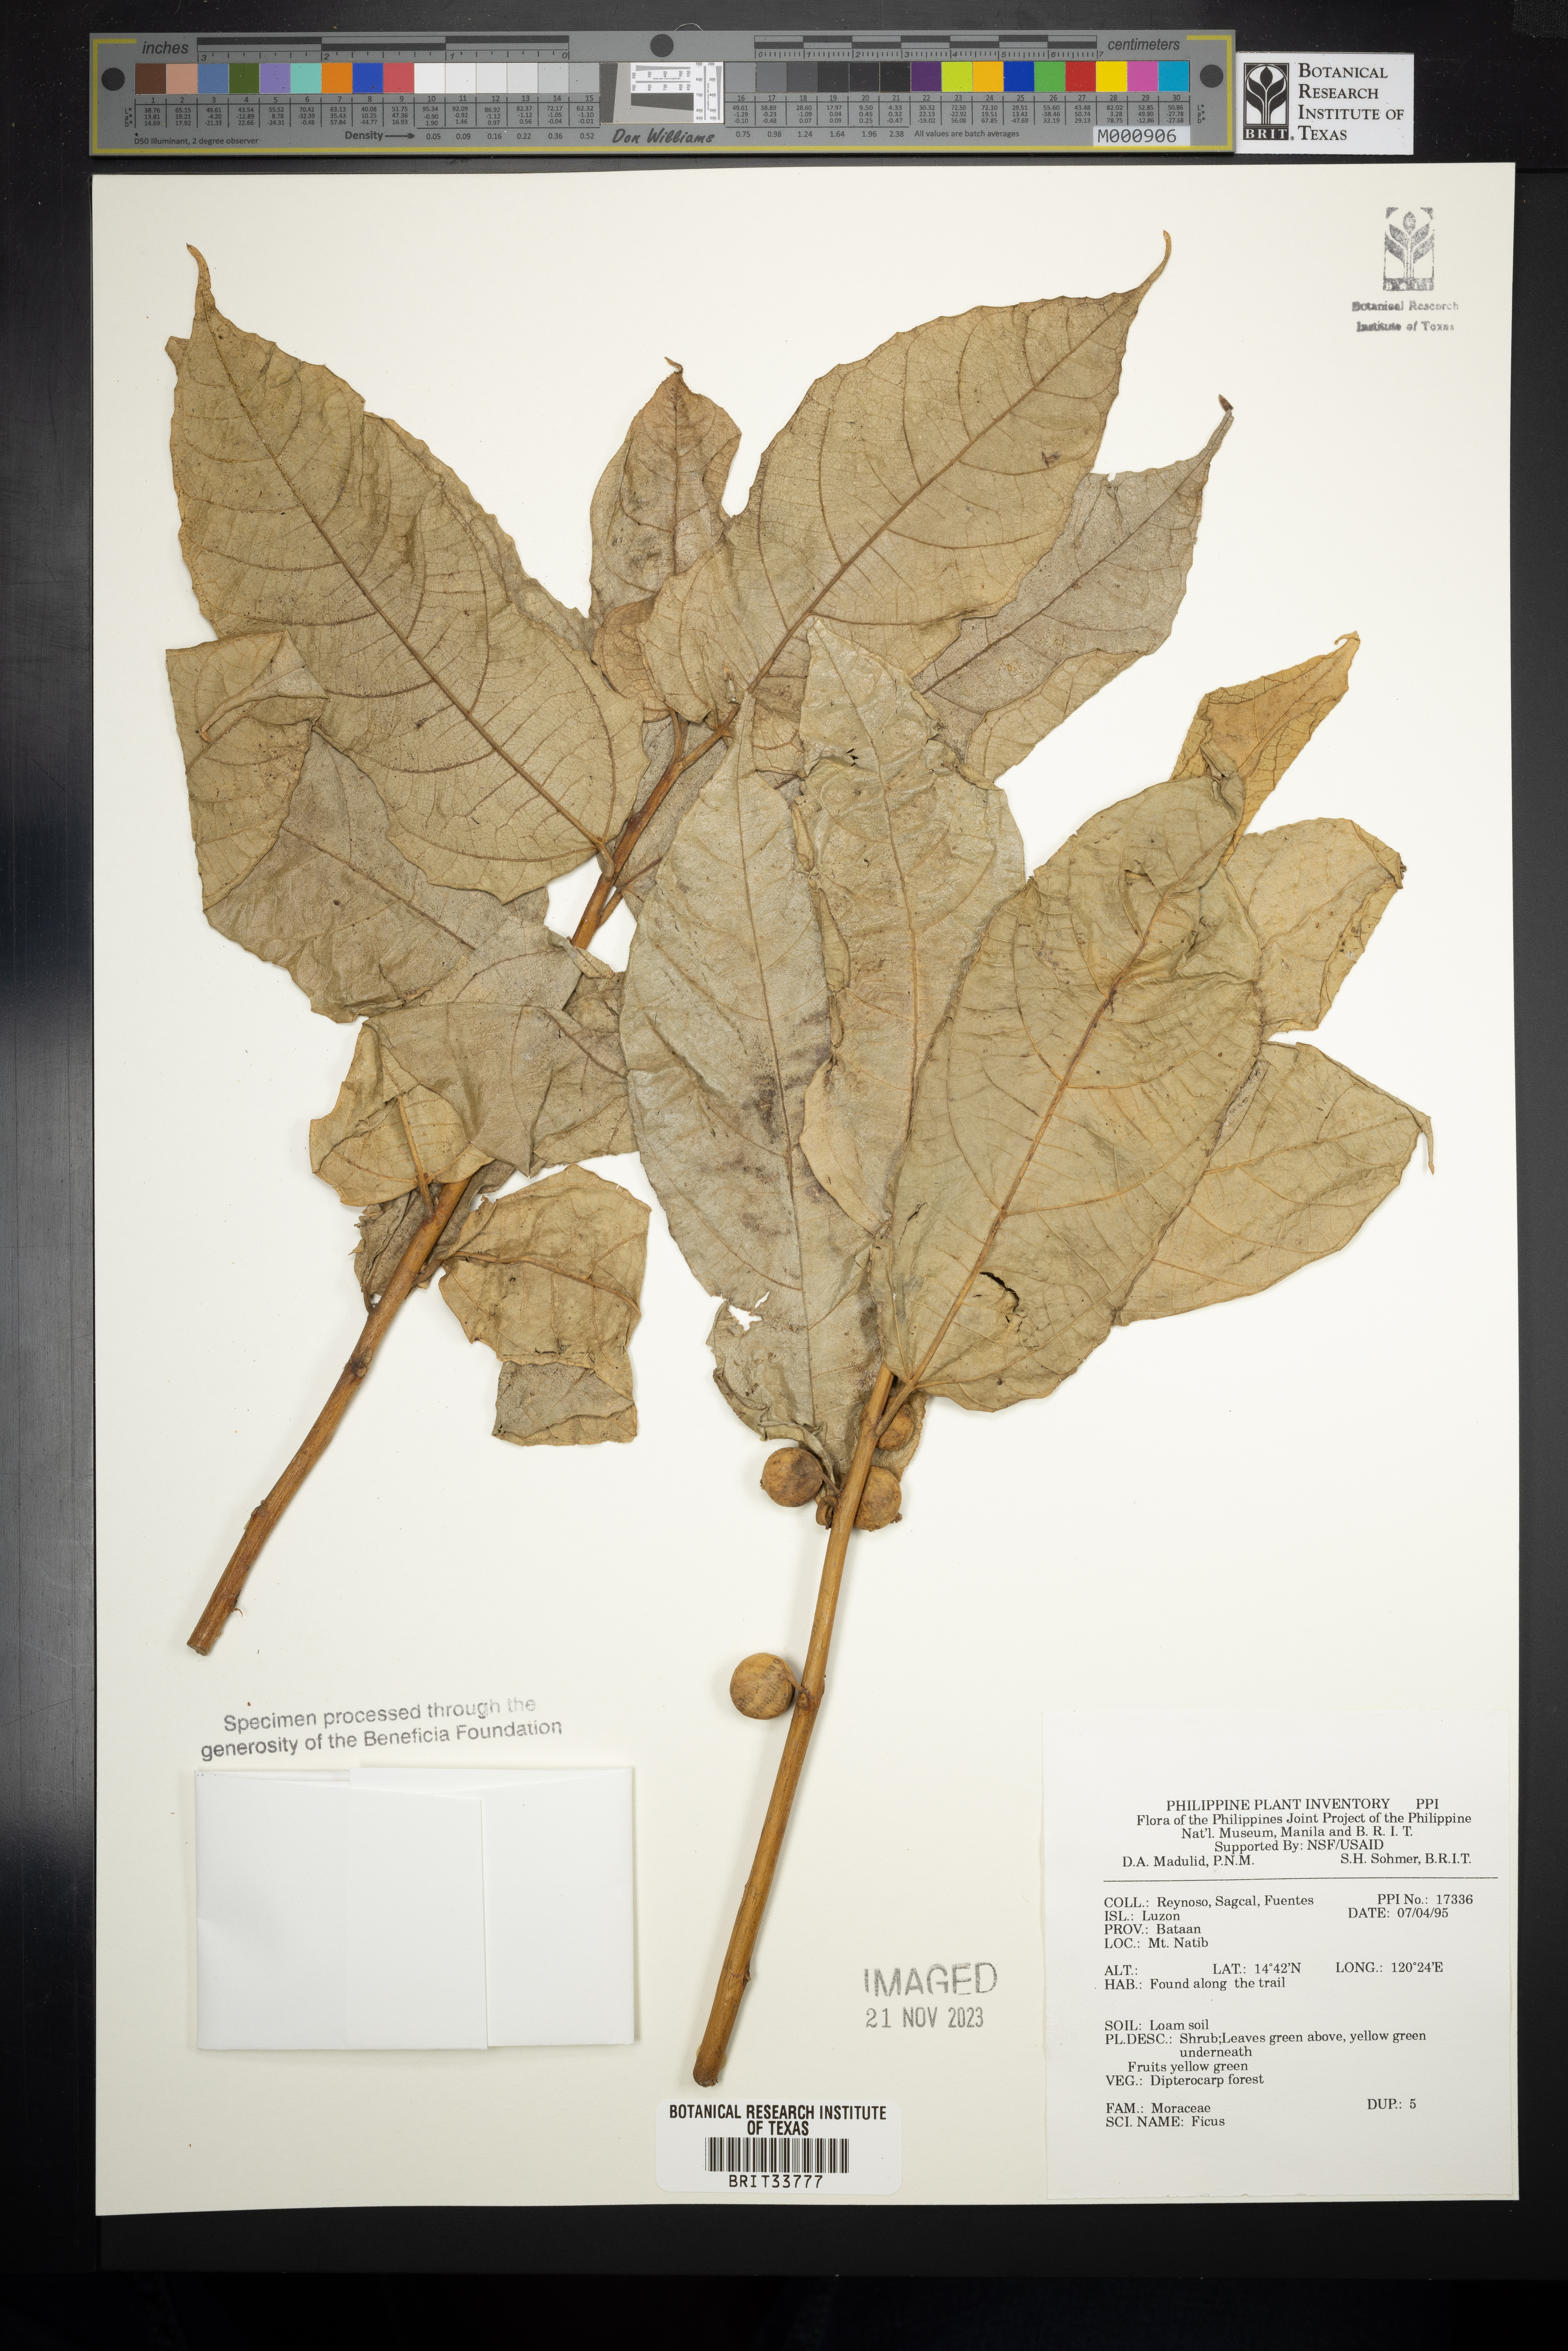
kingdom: Plantae
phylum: Tracheophyta
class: Magnoliopsida
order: Rosales
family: Moraceae
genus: Ficus
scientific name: Ficus
